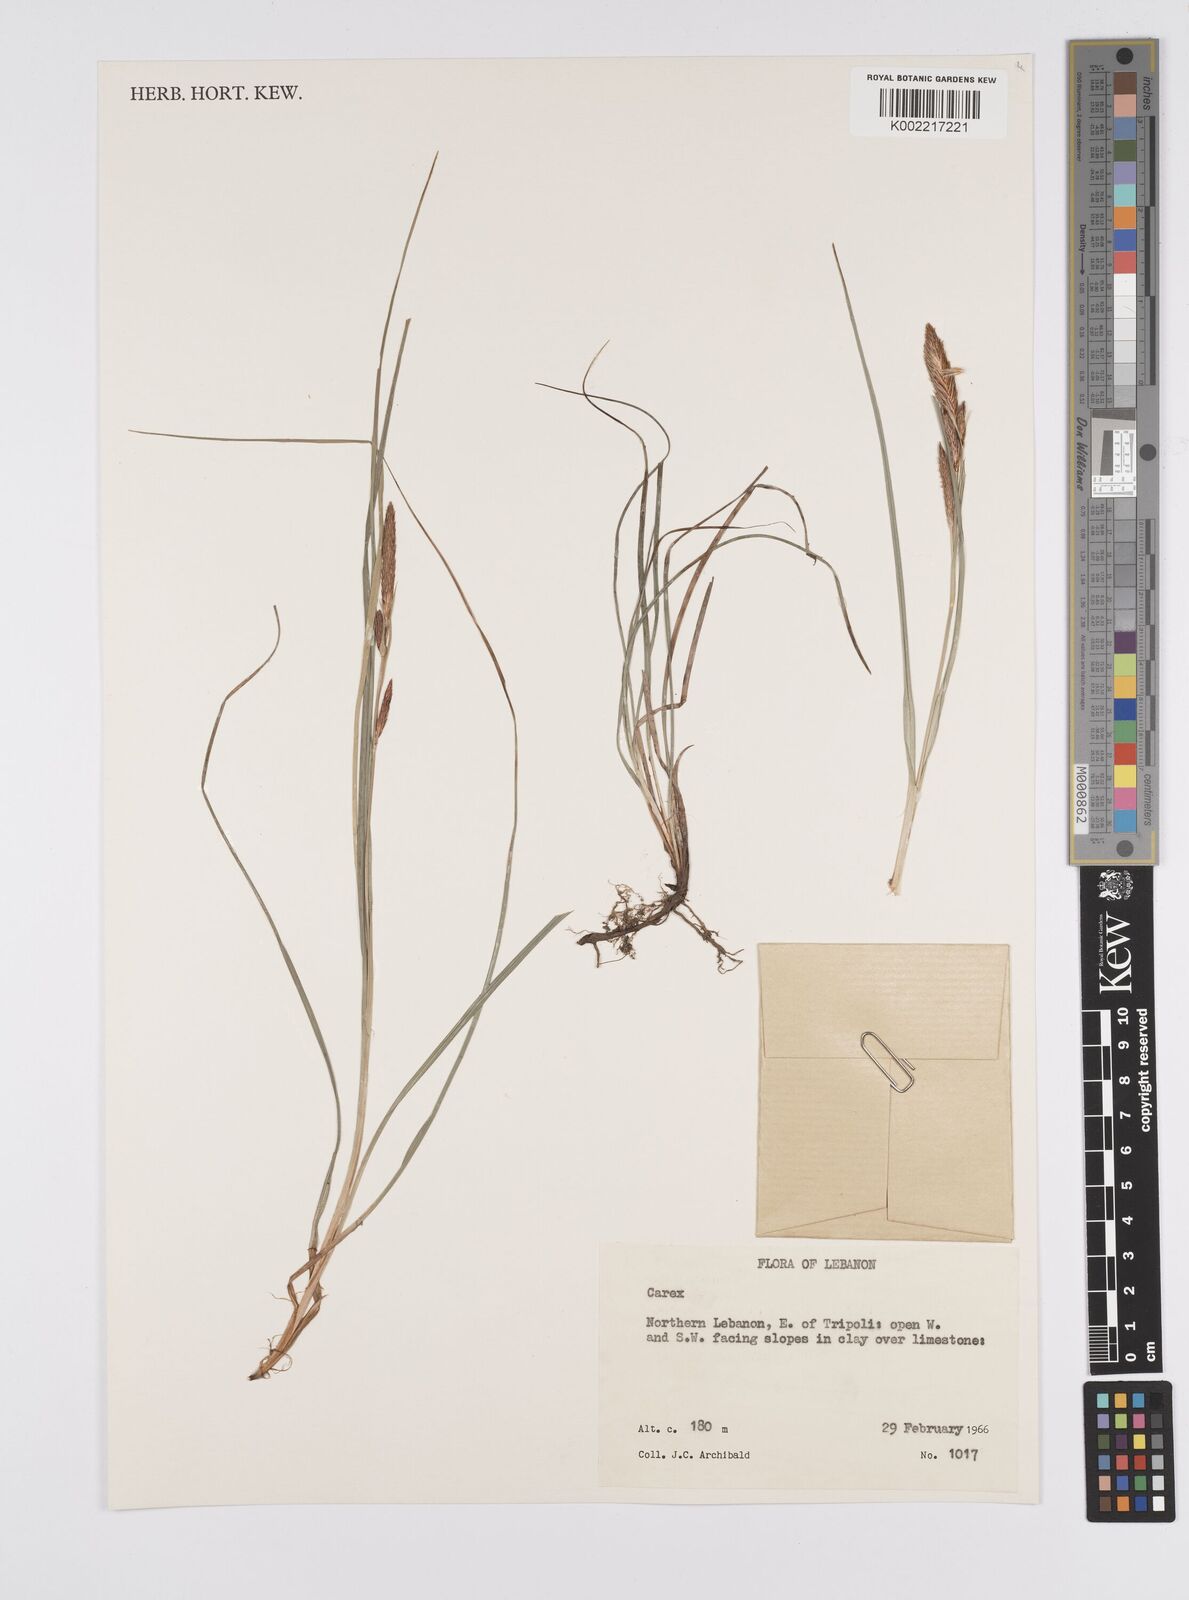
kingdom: Plantae
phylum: Tracheophyta
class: Liliopsida
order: Poales
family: Cyperaceae
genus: Carex
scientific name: Carex
